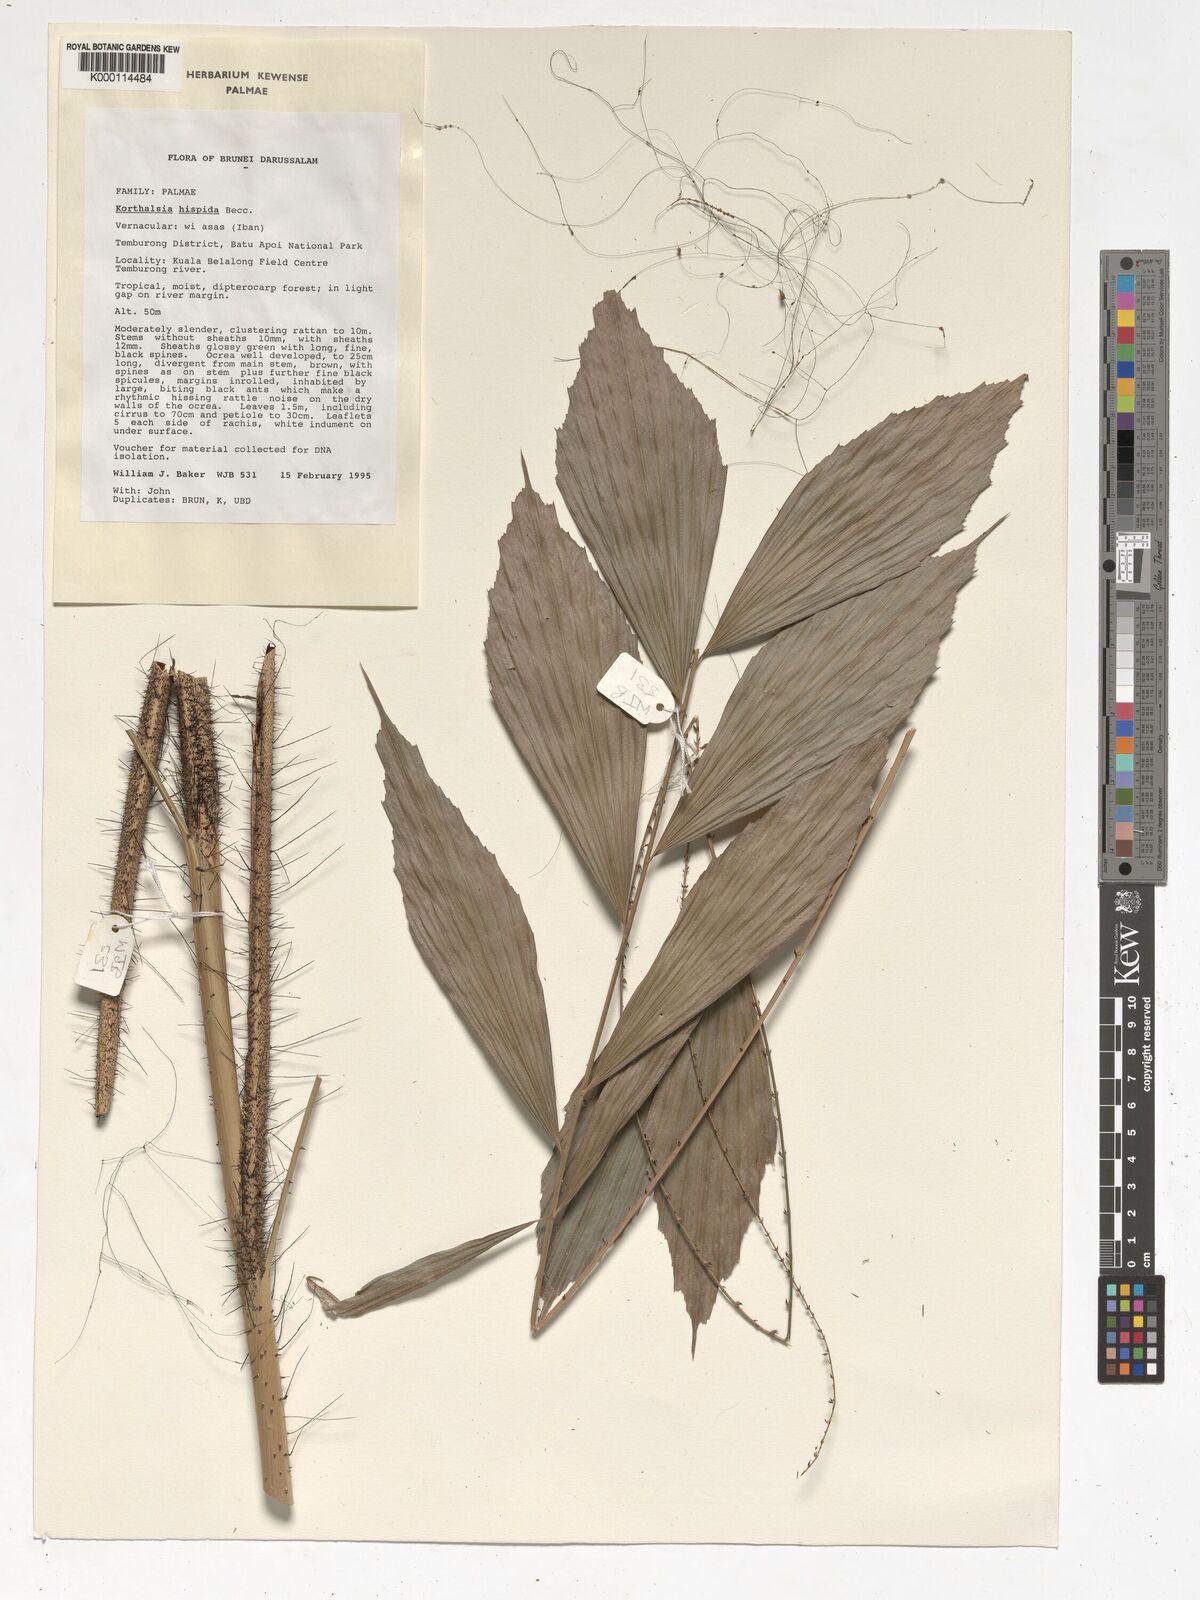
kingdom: Plantae
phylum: Tracheophyta
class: Liliopsida
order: Arecales
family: Arecaceae
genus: Korthalsia
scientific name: Korthalsia hispida
